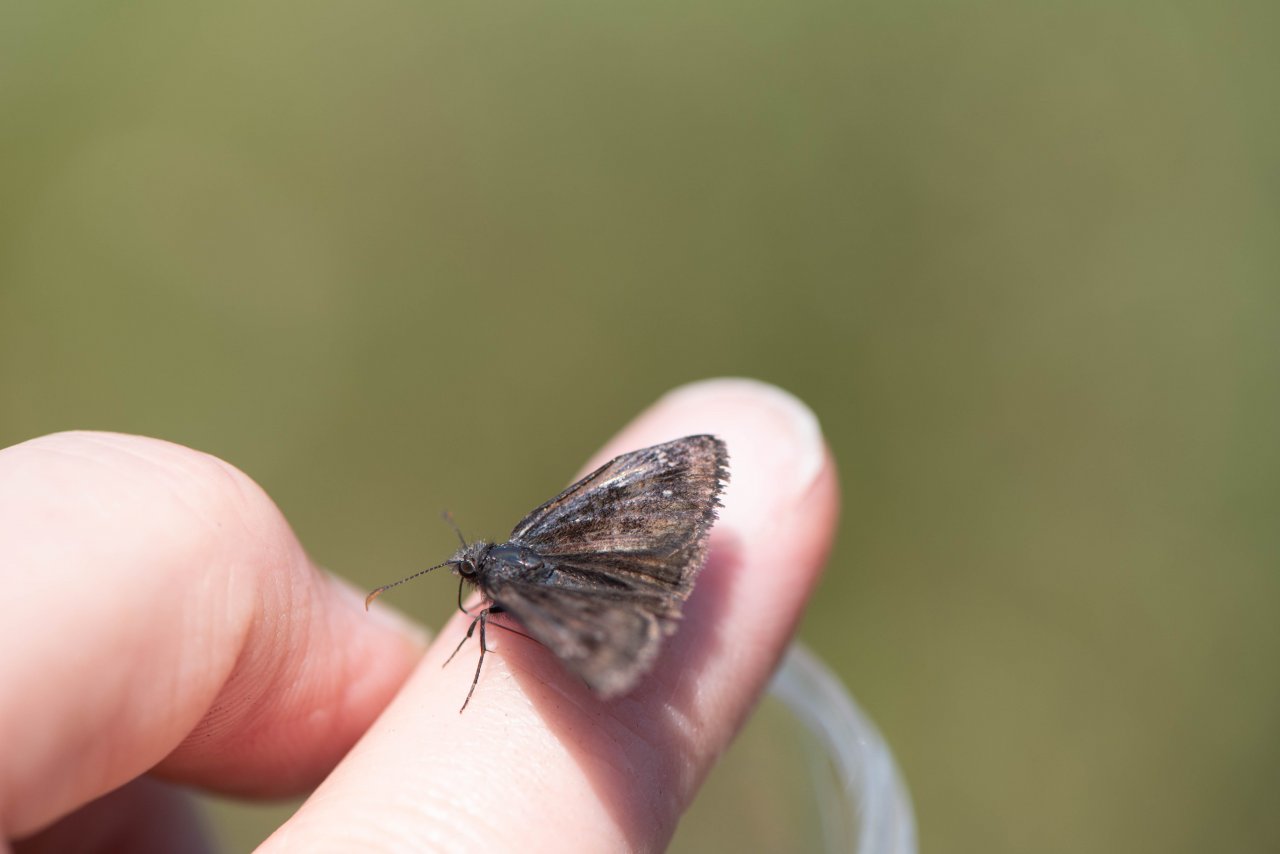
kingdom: Animalia
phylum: Arthropoda
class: Insecta
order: Lepidoptera
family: Hesperiidae
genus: Gesta
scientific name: Gesta
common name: Columbine Duskywing
